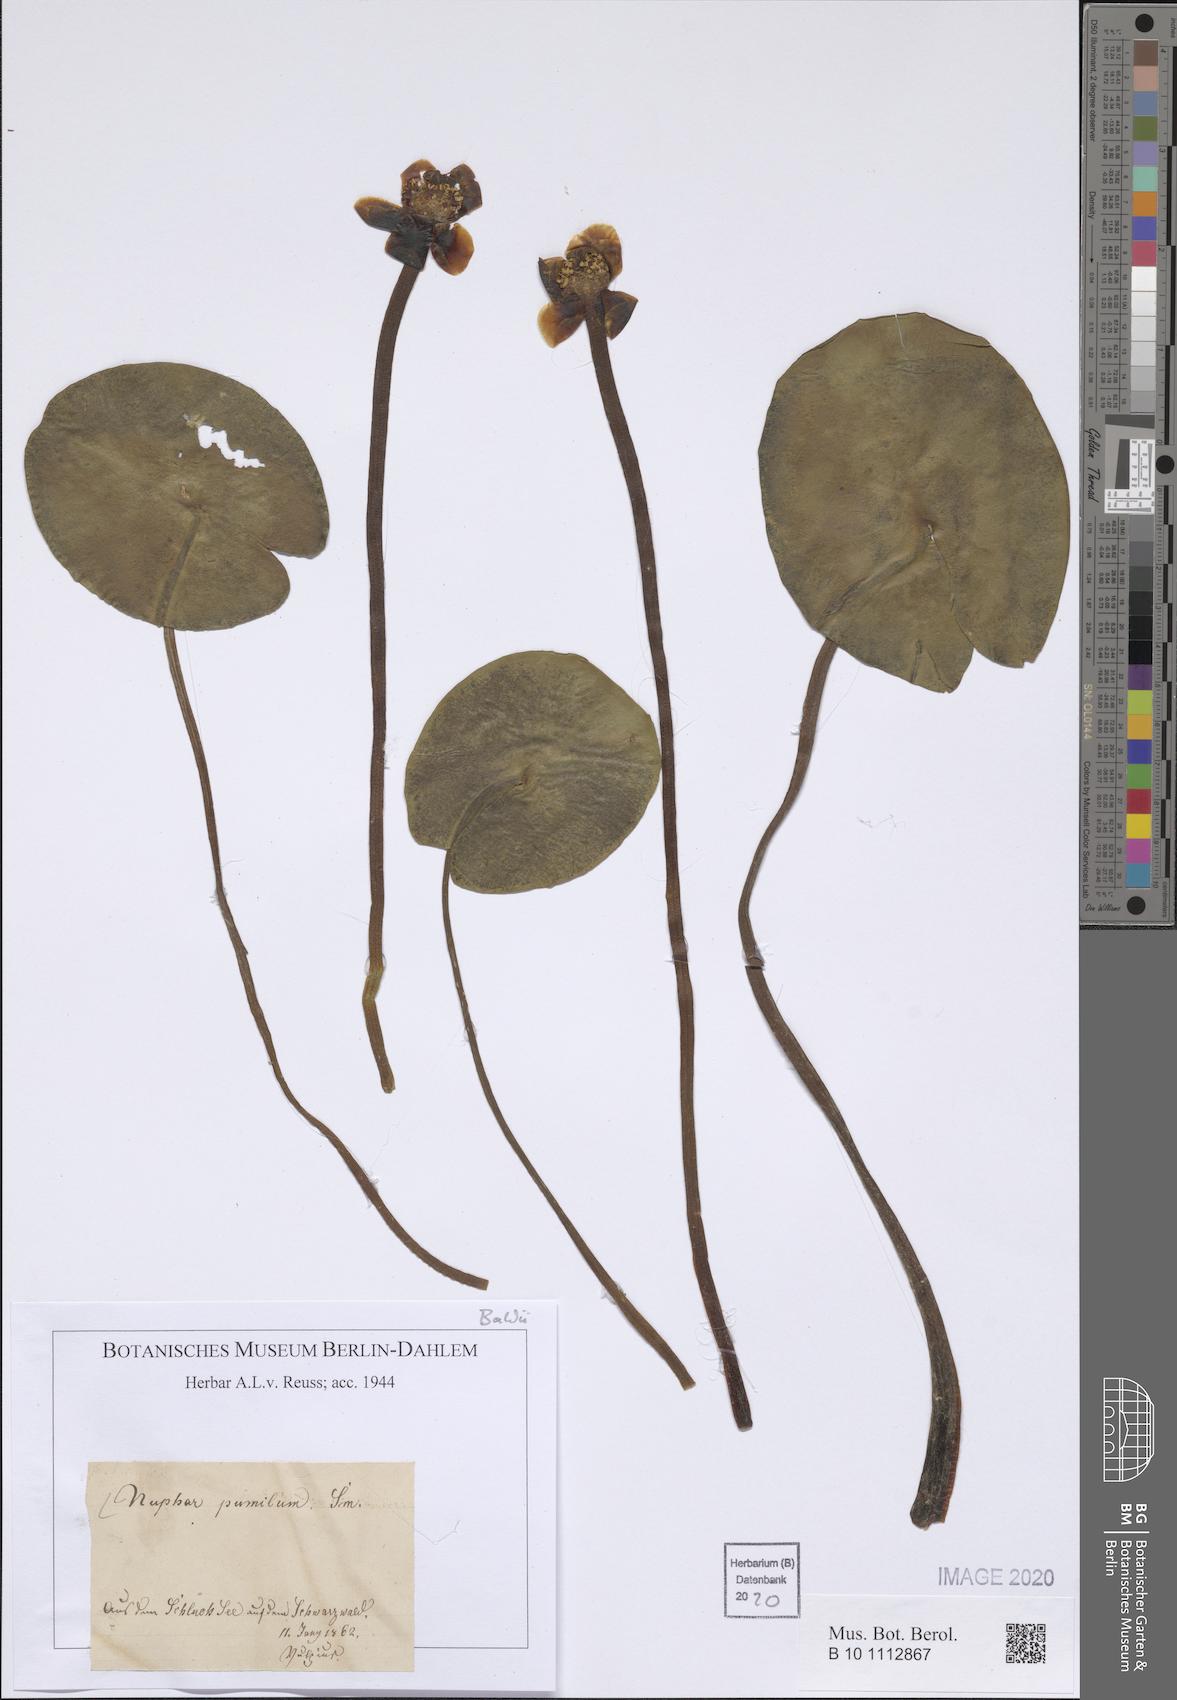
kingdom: Plantae
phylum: Tracheophyta
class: Magnoliopsida
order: Nymphaeales
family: Nymphaeaceae
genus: Nuphar
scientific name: Nuphar pumila
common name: Least water-lily
